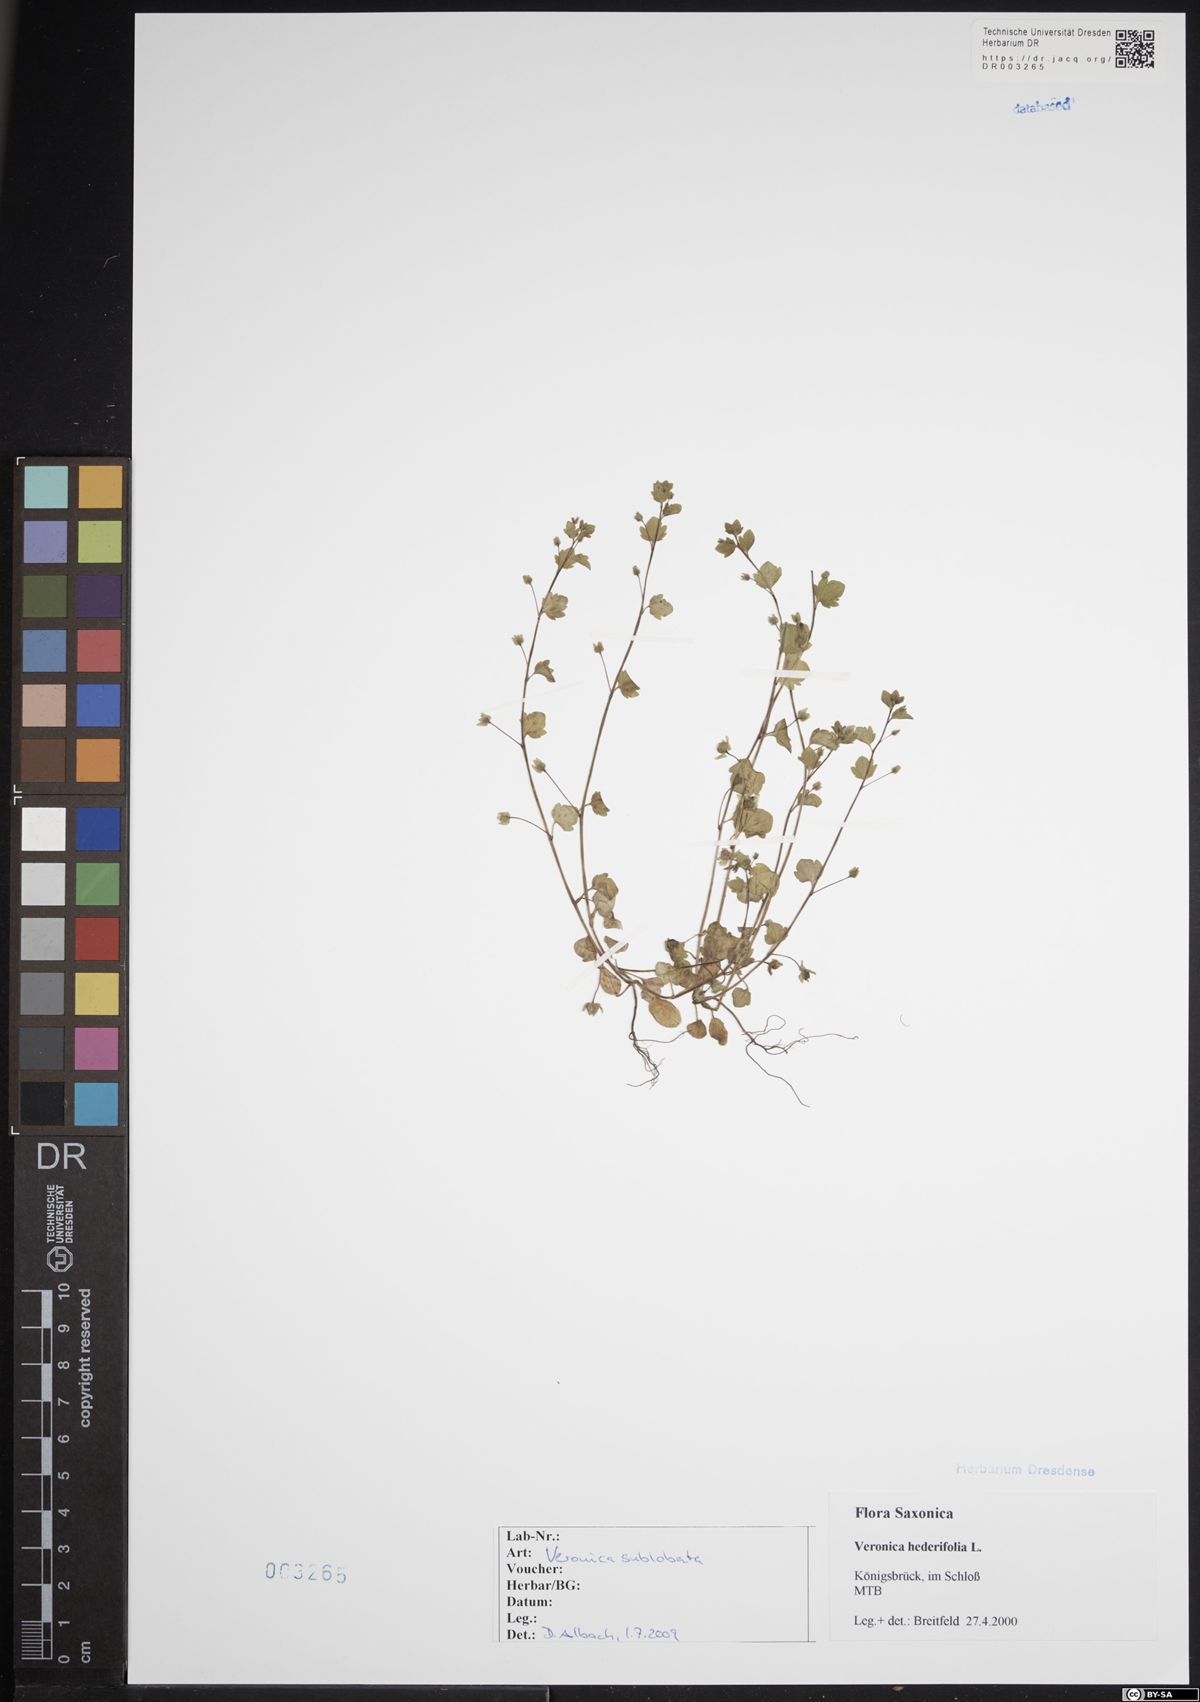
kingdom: Plantae
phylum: Tracheophyta
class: Magnoliopsida
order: Lamiales
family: Plantaginaceae
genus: Veronica
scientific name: Veronica sublobata
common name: False ivy-leaved speedwell
